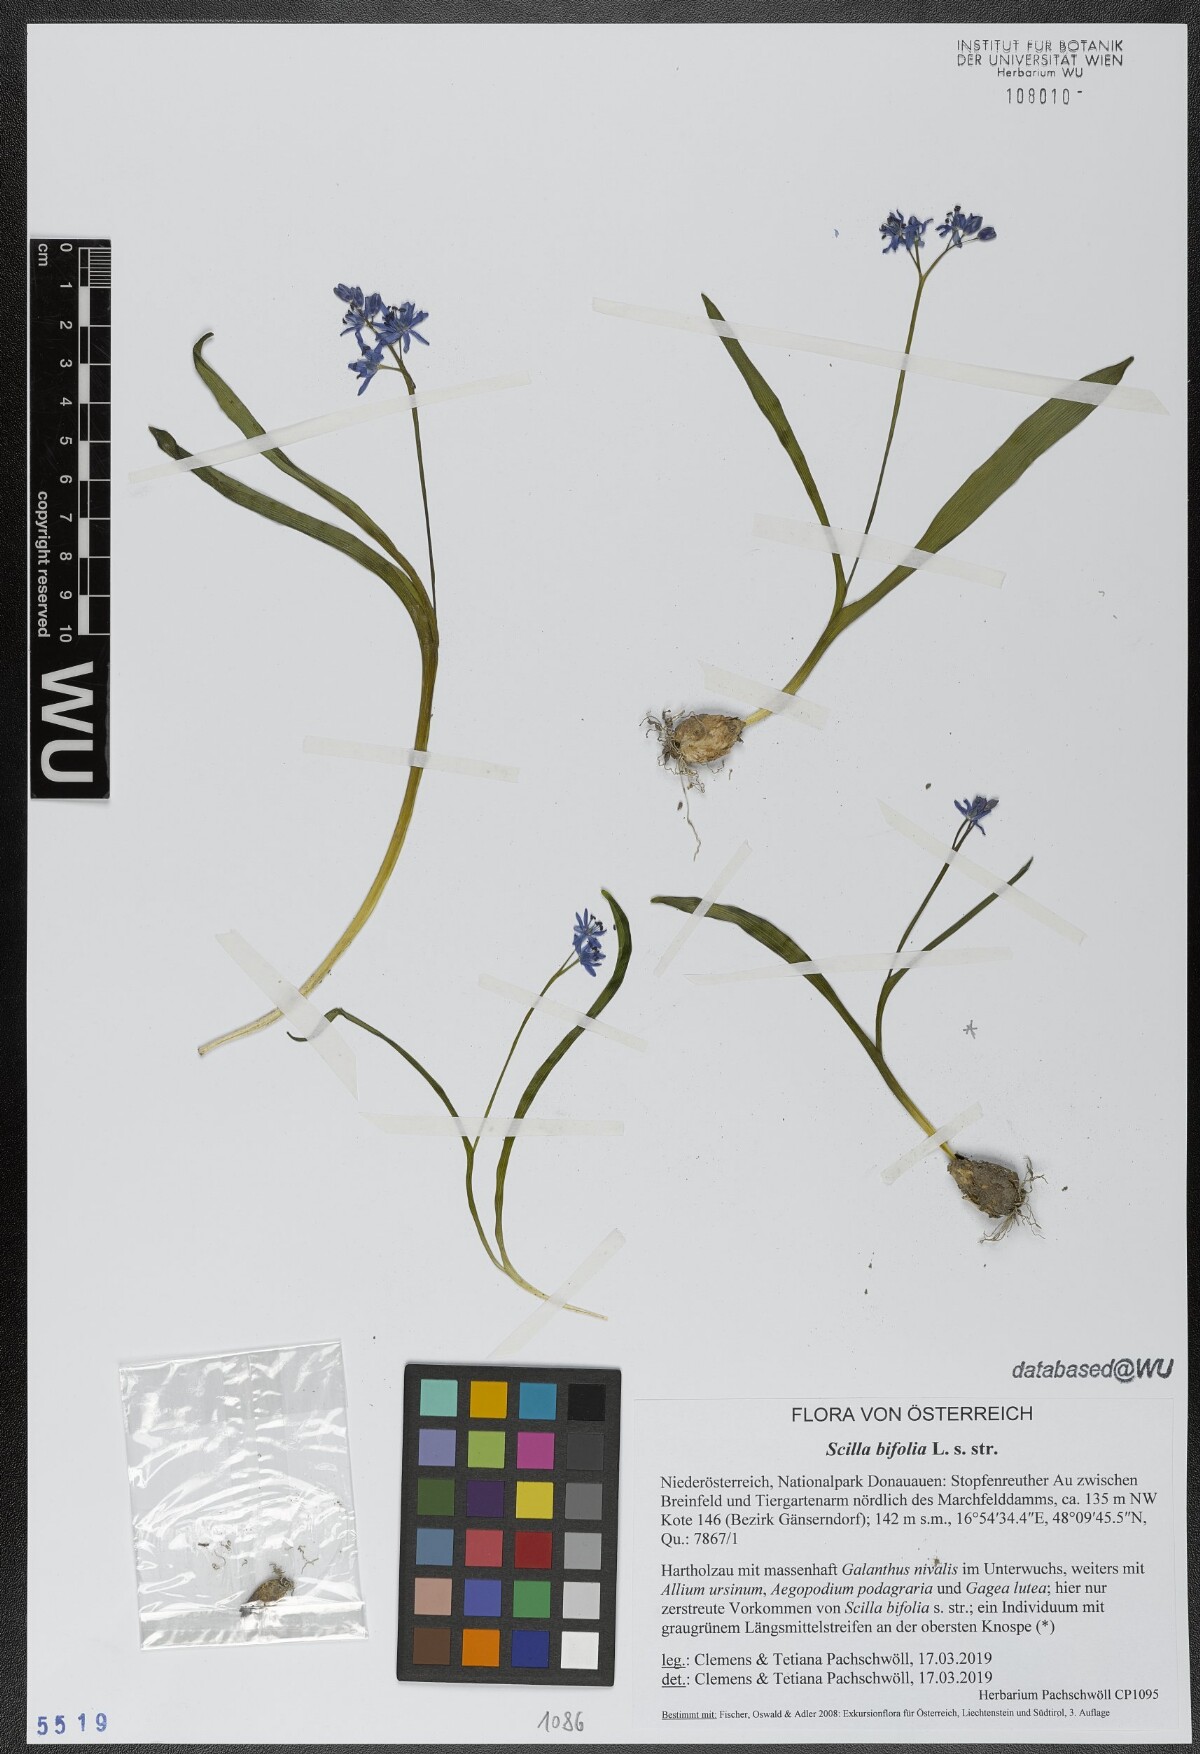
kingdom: Plantae
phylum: Tracheophyta
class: Liliopsida
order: Asparagales
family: Asparagaceae
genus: Scilla
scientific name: Scilla bifolia
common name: Alpine squill
